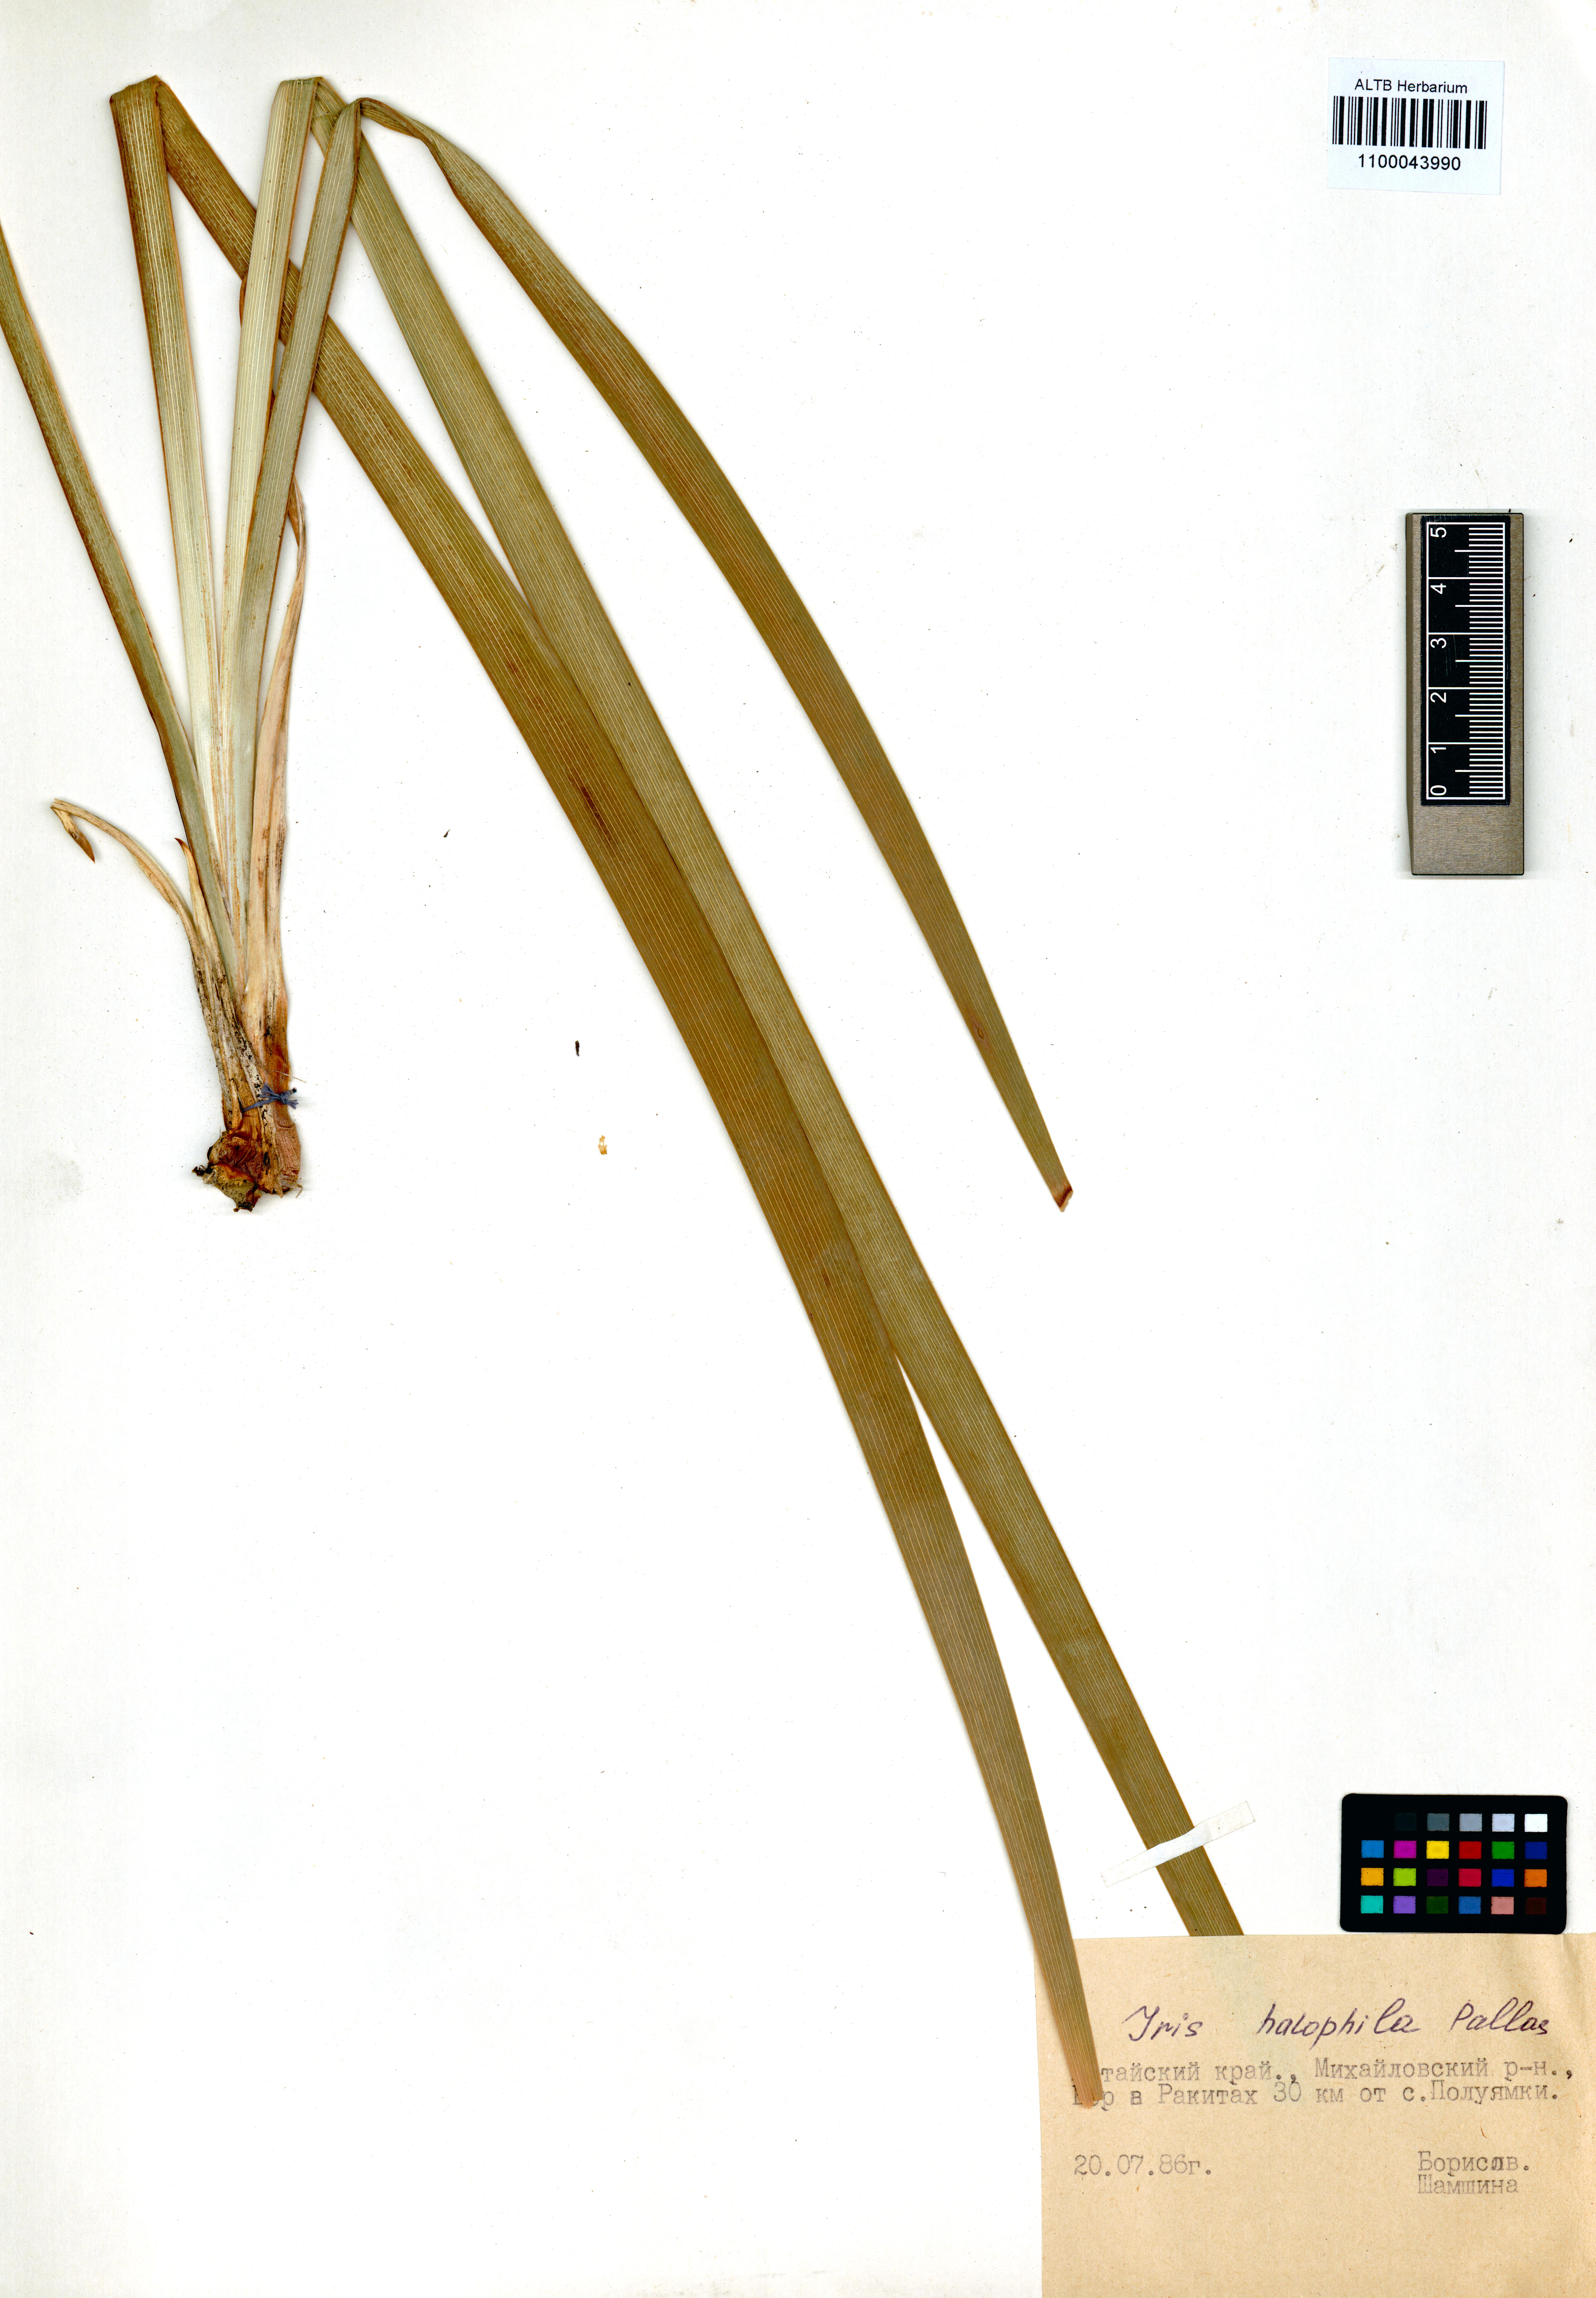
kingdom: Plantae
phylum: Tracheophyta
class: Liliopsida
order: Asparagales
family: Iridaceae
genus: Iris
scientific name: Iris halophila
